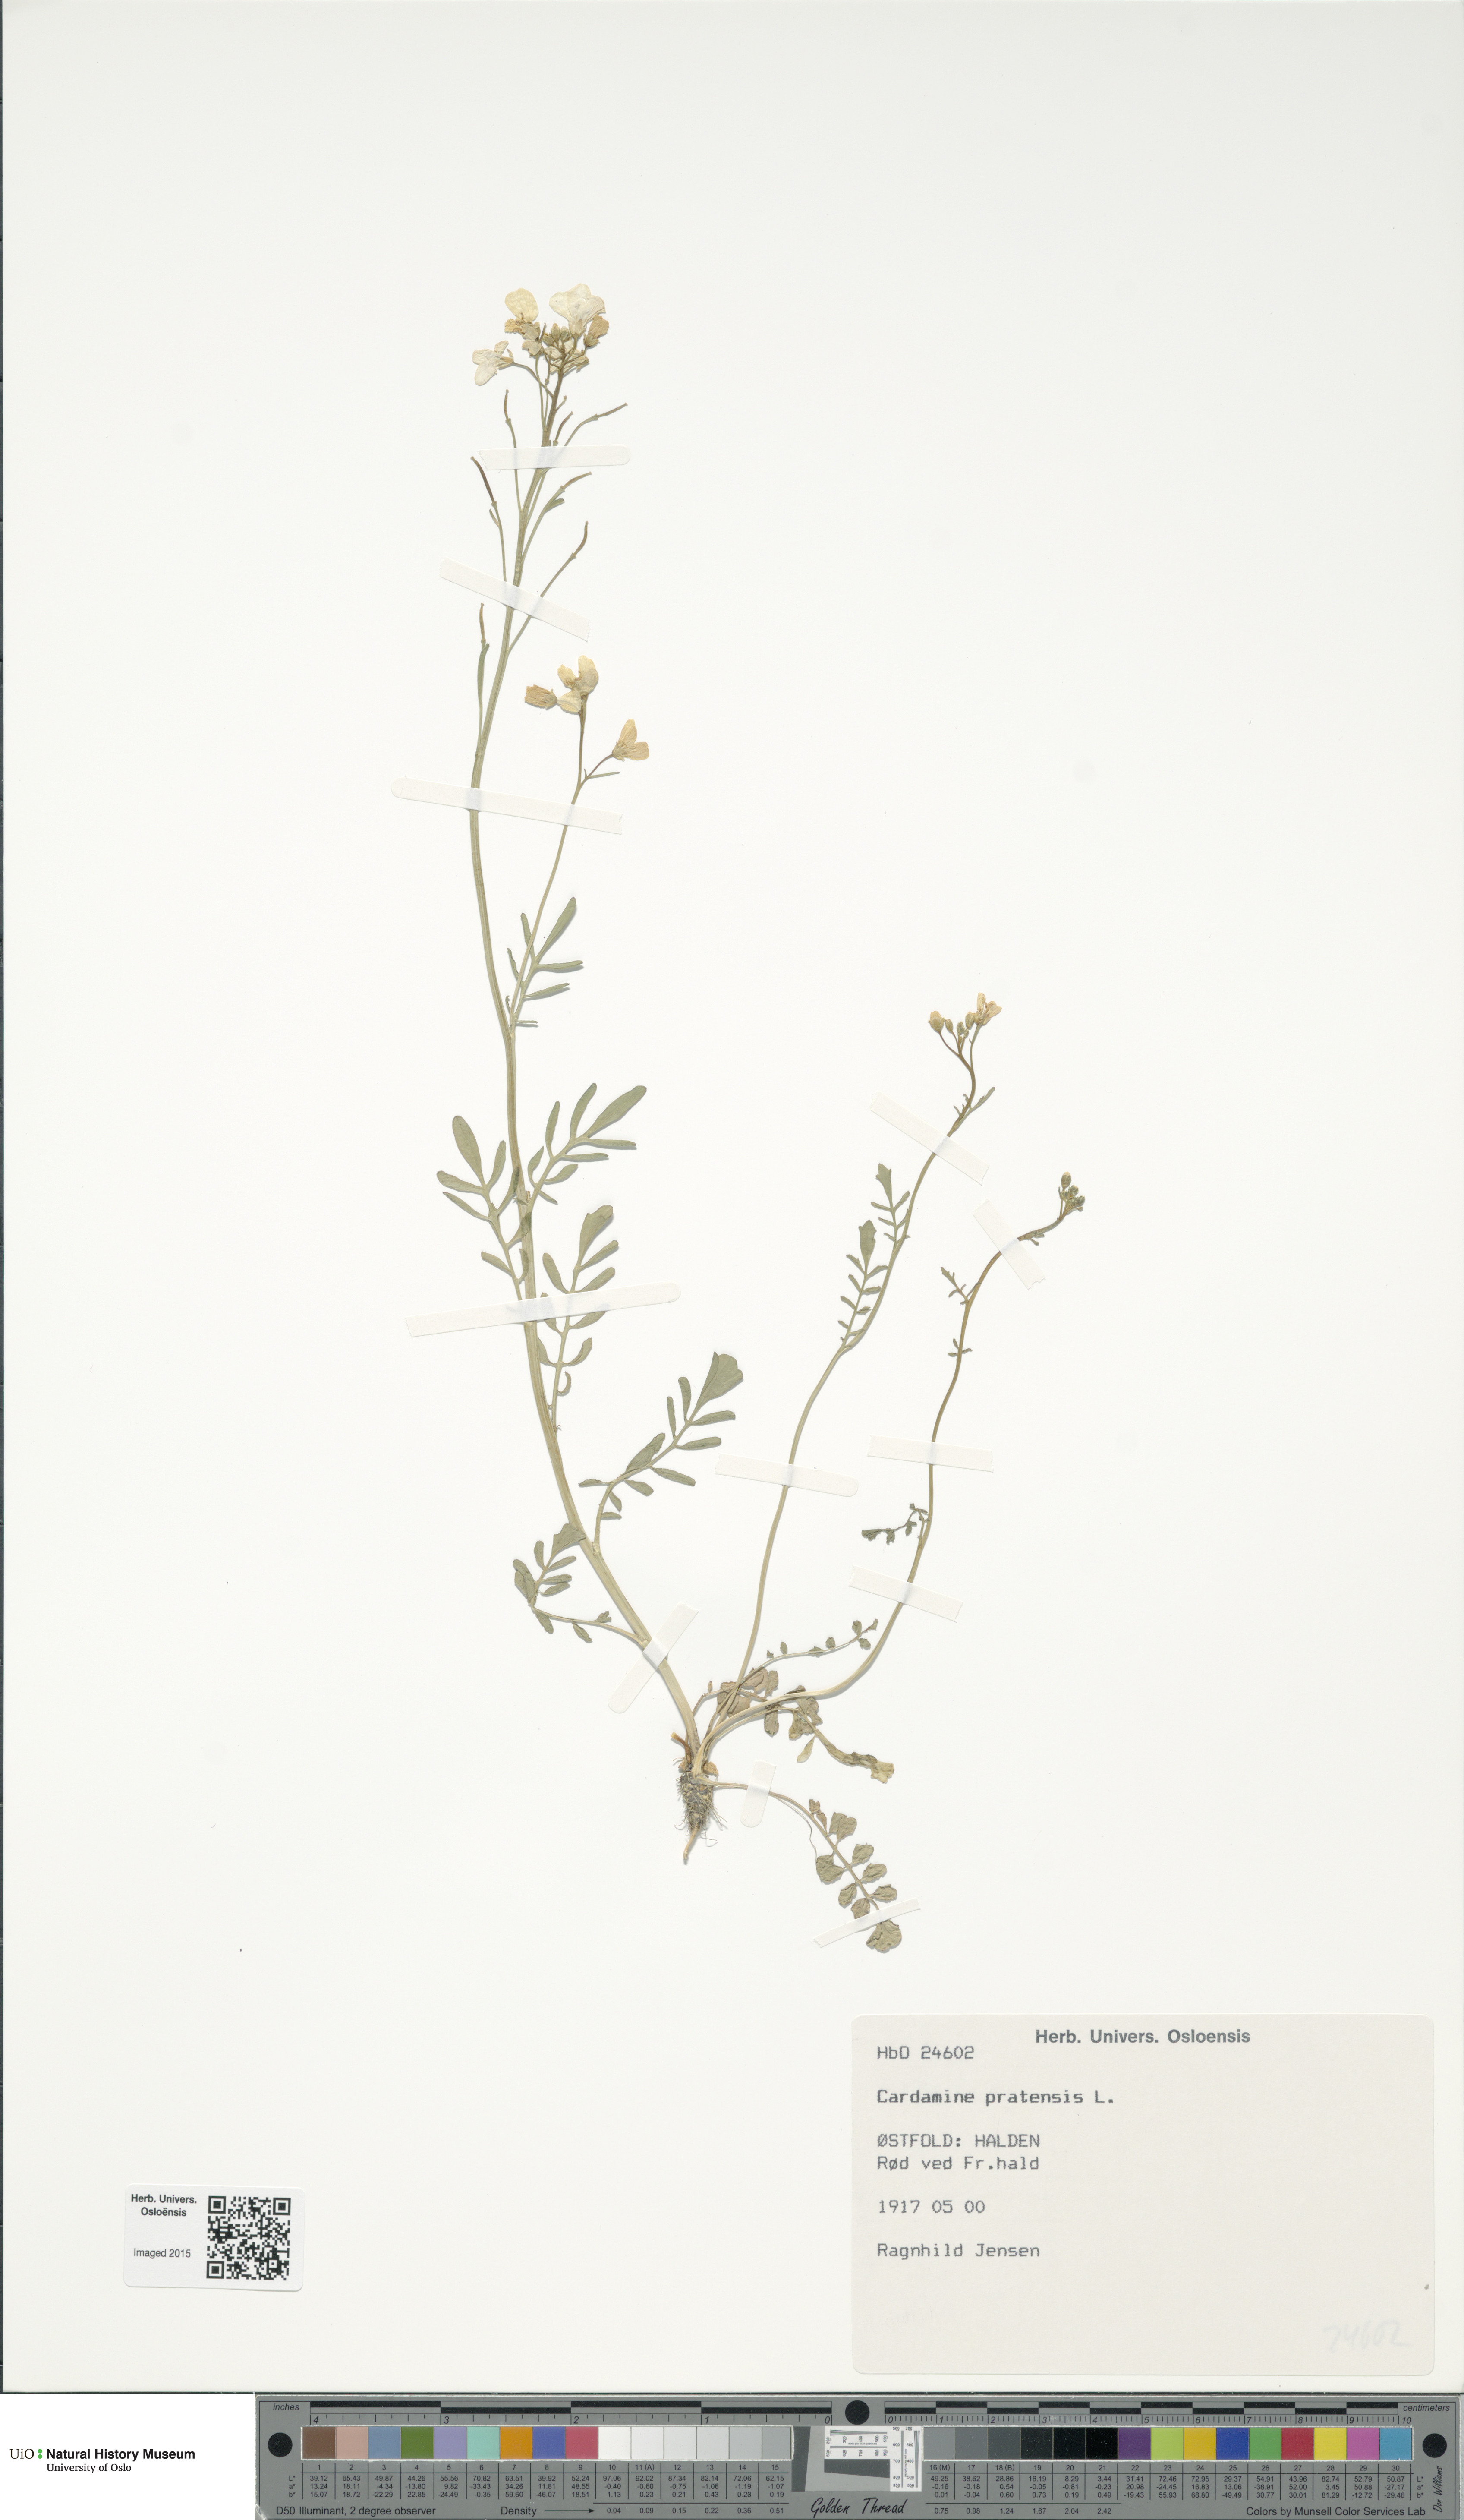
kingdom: Plantae
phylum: Tracheophyta
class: Magnoliopsida
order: Brassicales
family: Brassicaceae
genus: Cardamine
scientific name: Cardamine pratensis
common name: Cuckoo flower
